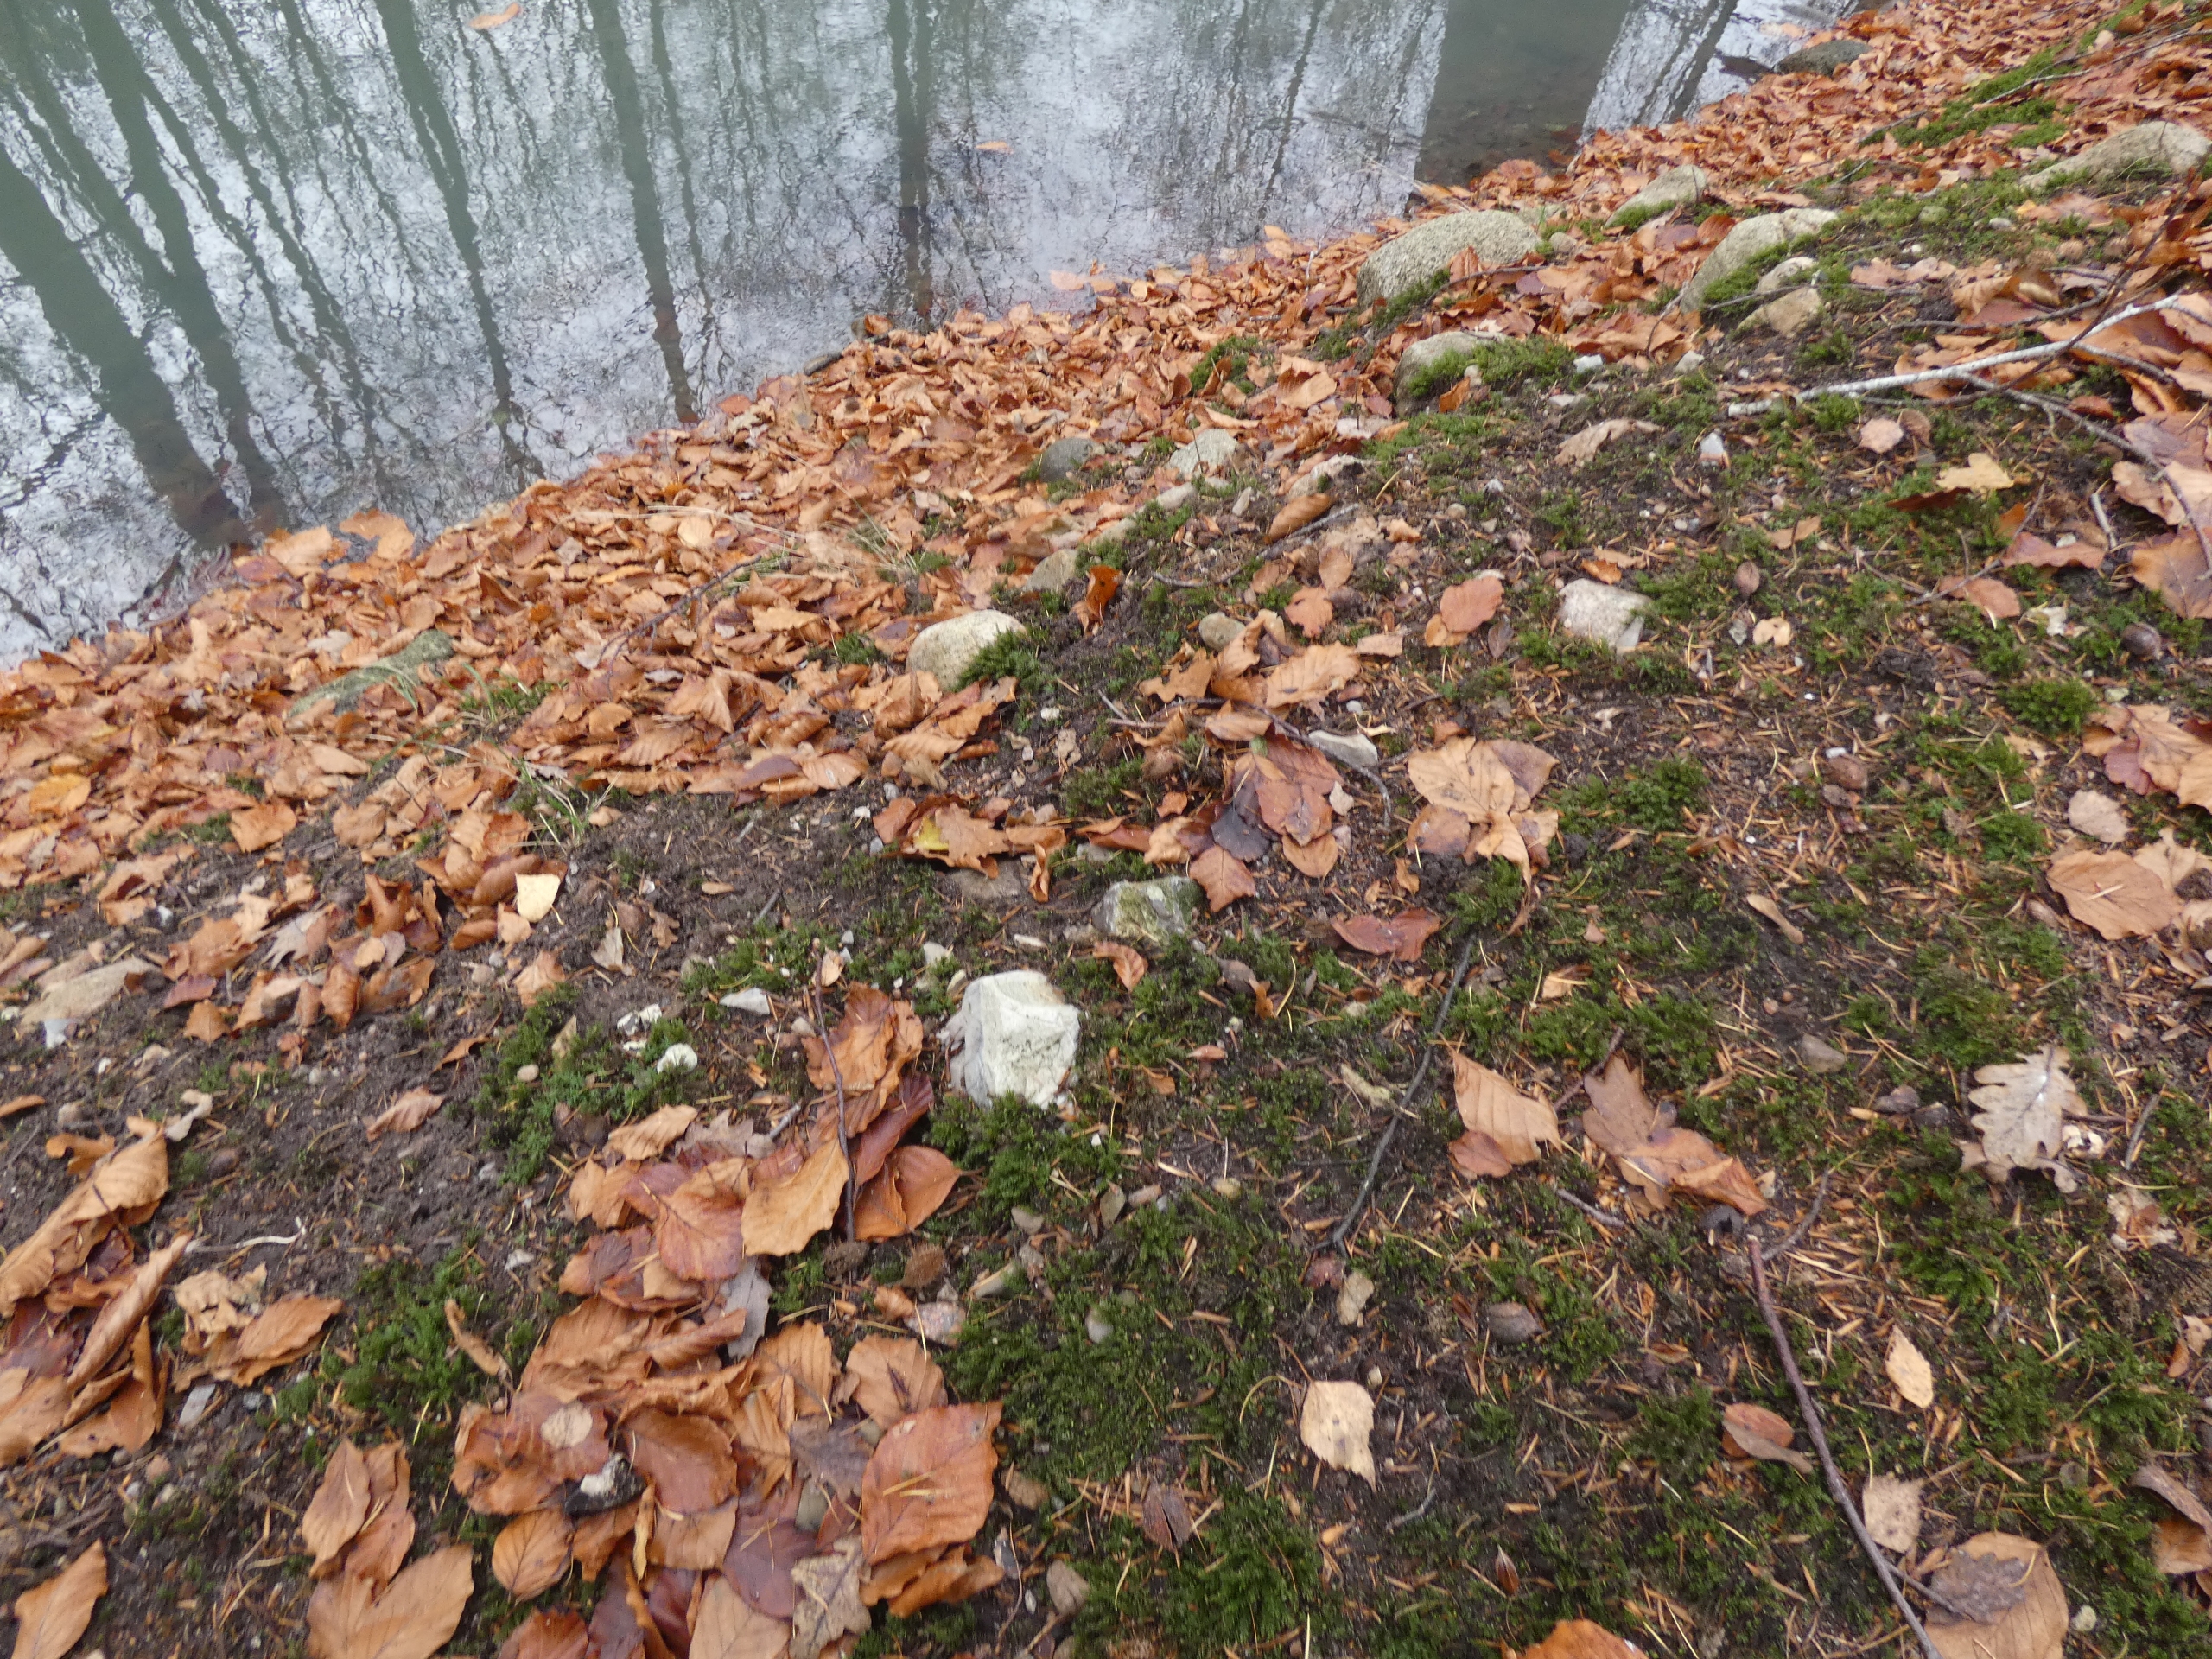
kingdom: Plantae
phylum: Bryophyta
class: Bryopsida
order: Bryales
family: Mniaceae
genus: Mnium
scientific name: Mnium hornum
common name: Brunfiltet stjernemos
